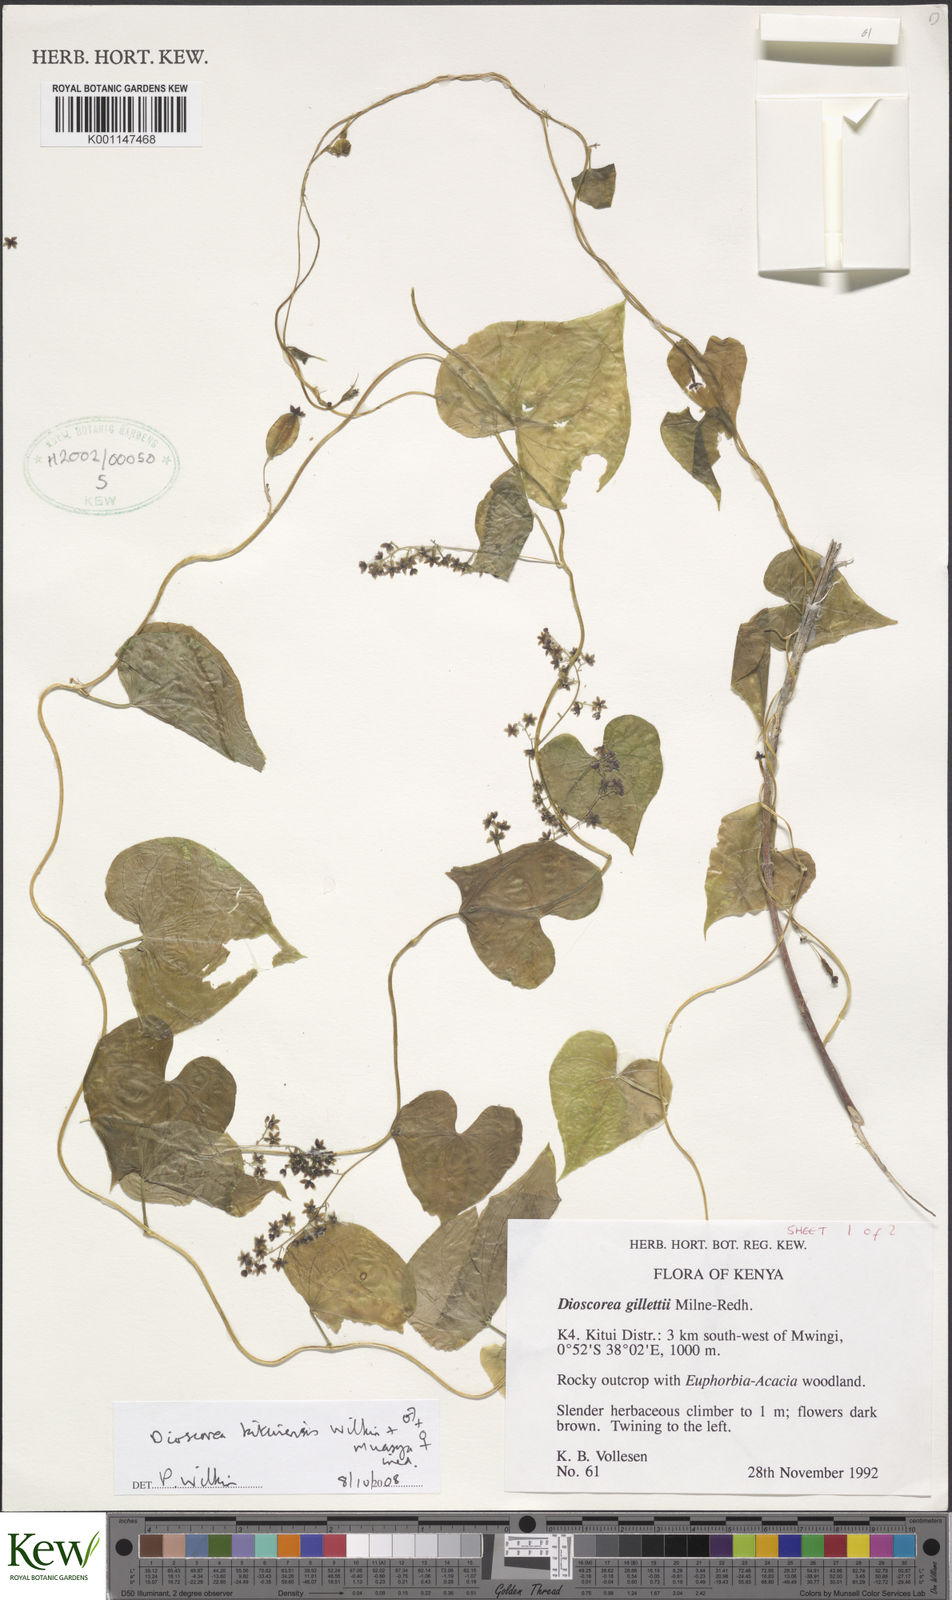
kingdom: Plantae
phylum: Tracheophyta
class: Liliopsida
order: Dioscoreales
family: Dioscoreaceae
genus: Dioscorea
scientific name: Dioscorea kituiensis
